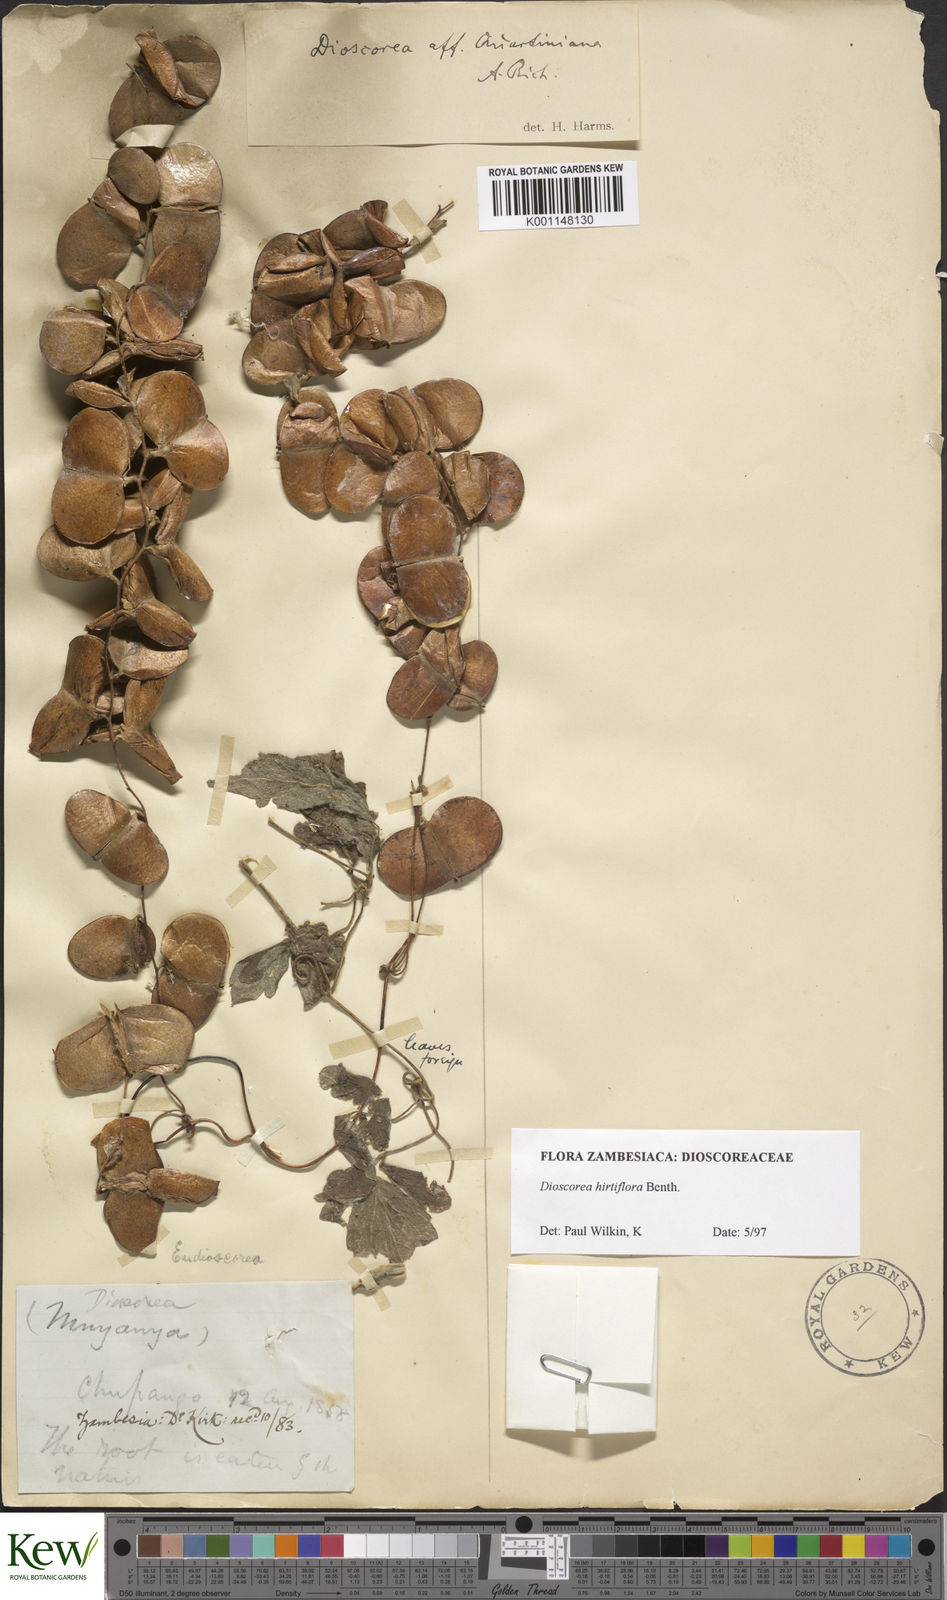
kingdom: Plantae
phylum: Tracheophyta
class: Liliopsida
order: Dioscoreales
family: Dioscoreaceae
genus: Dioscorea
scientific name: Dioscorea hirtiflora
